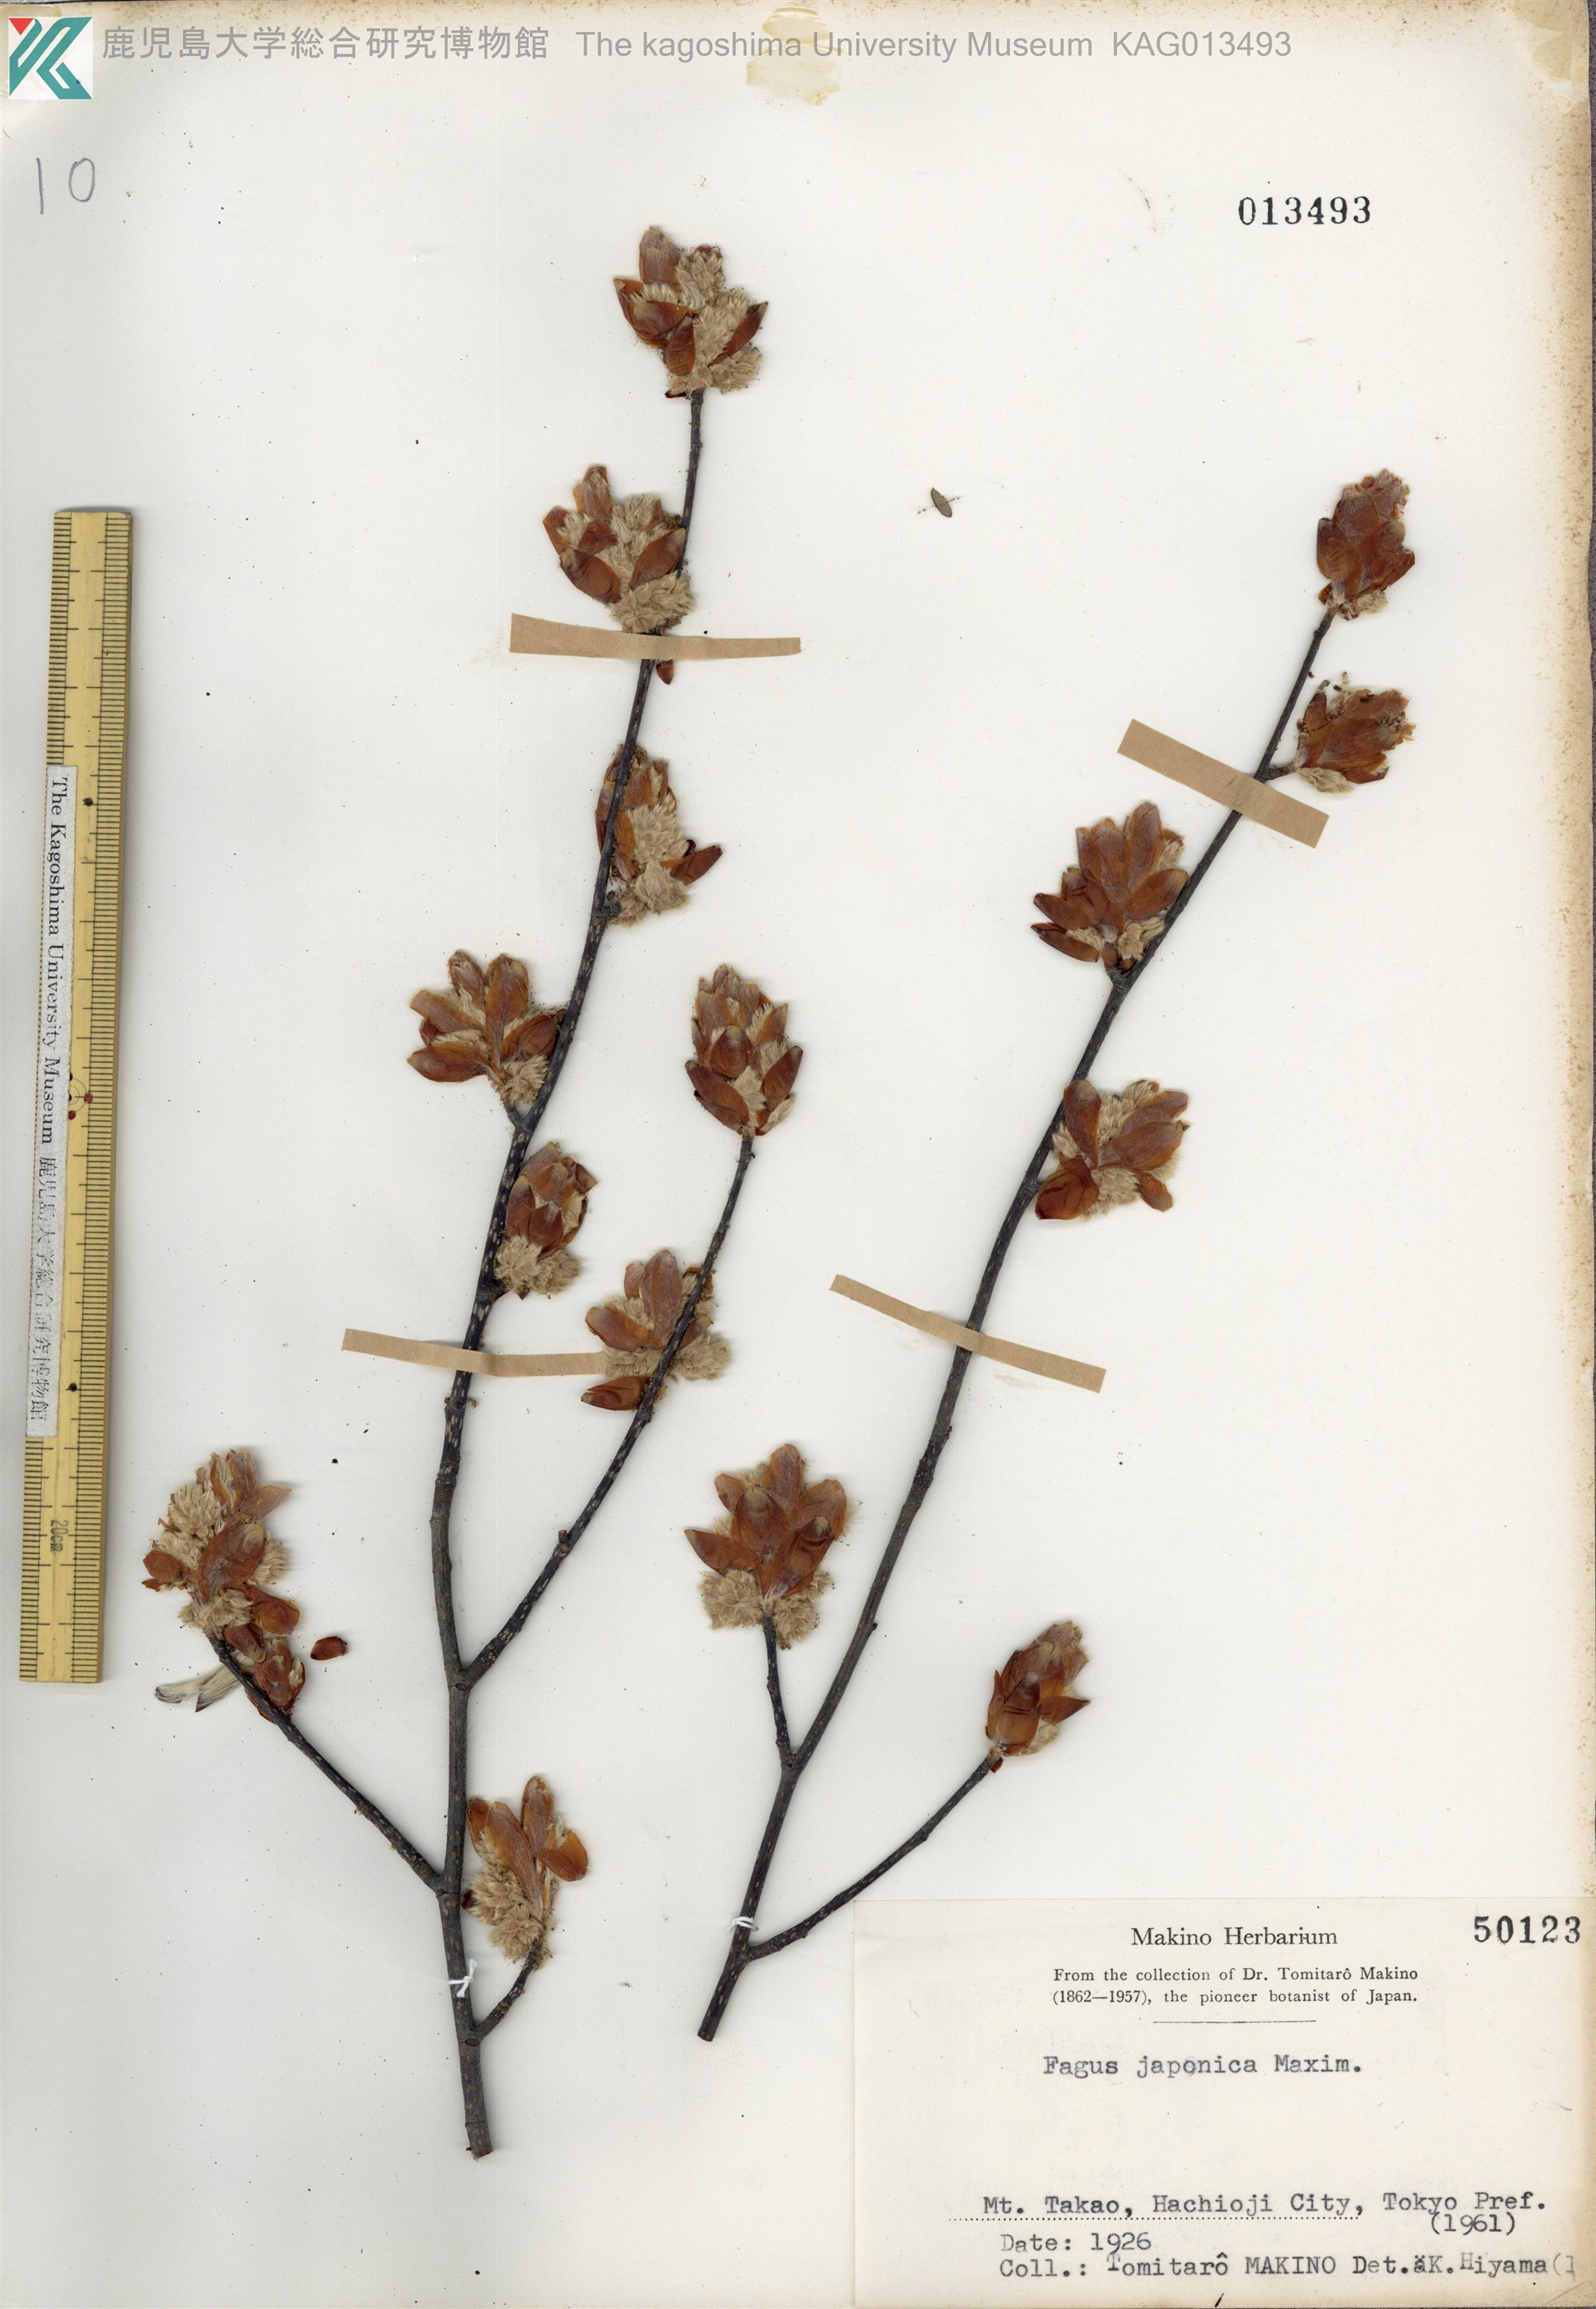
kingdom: Plantae
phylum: Tracheophyta
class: Magnoliopsida
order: Fagales
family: Fagaceae
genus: Fagus
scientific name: Fagus japonica
